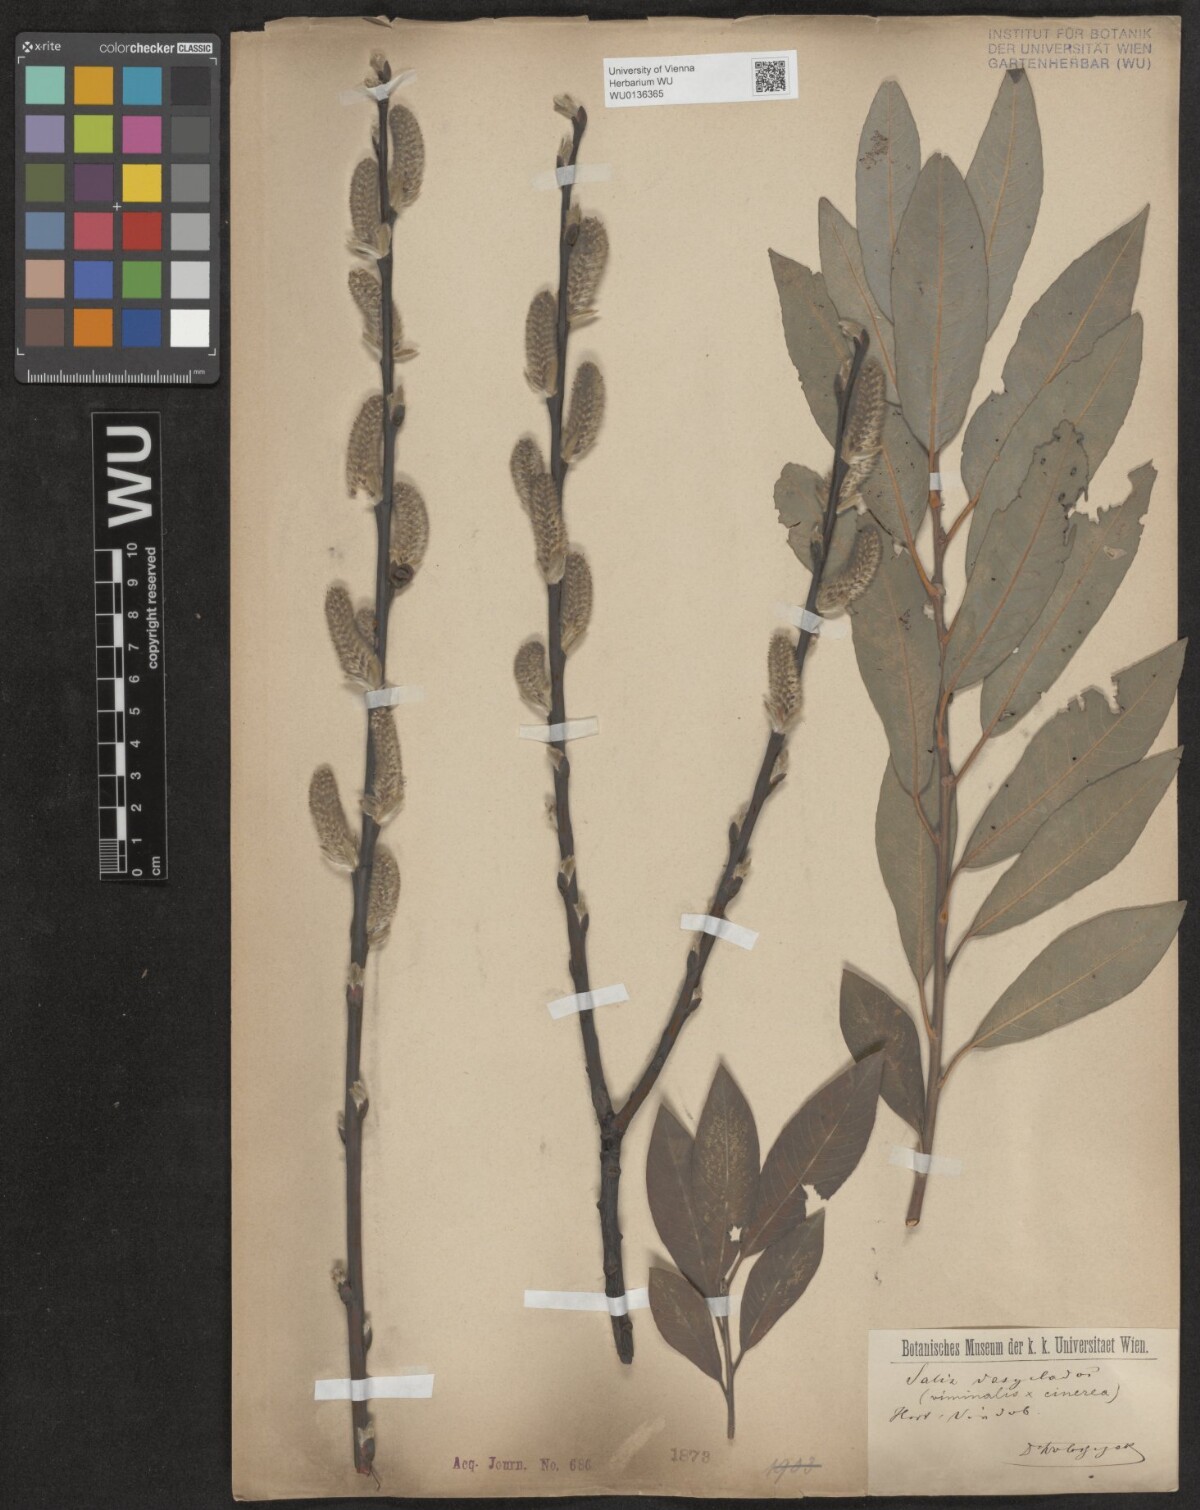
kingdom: Plantae
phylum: Tracheophyta
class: Magnoliopsida
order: Malpighiales
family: Salicaceae
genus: Salix
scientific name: Salix gmelinii
